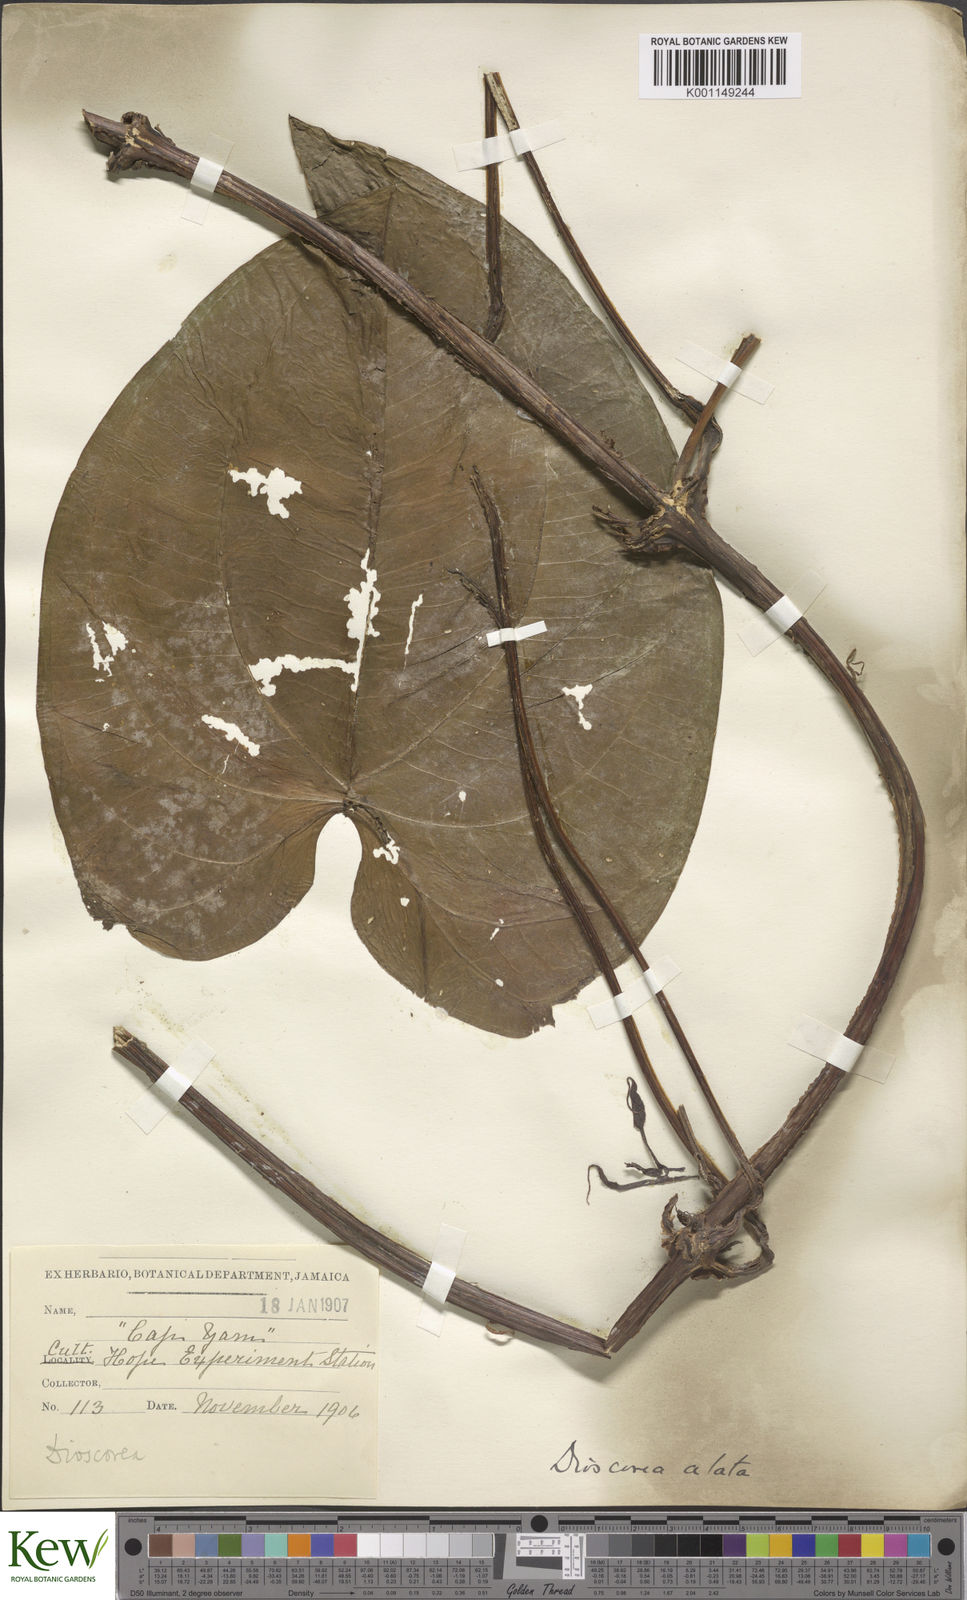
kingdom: Plantae
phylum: Tracheophyta
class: Liliopsida
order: Dioscoreales
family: Dioscoreaceae
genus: Dioscorea
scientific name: Dioscorea alata
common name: Water yam
